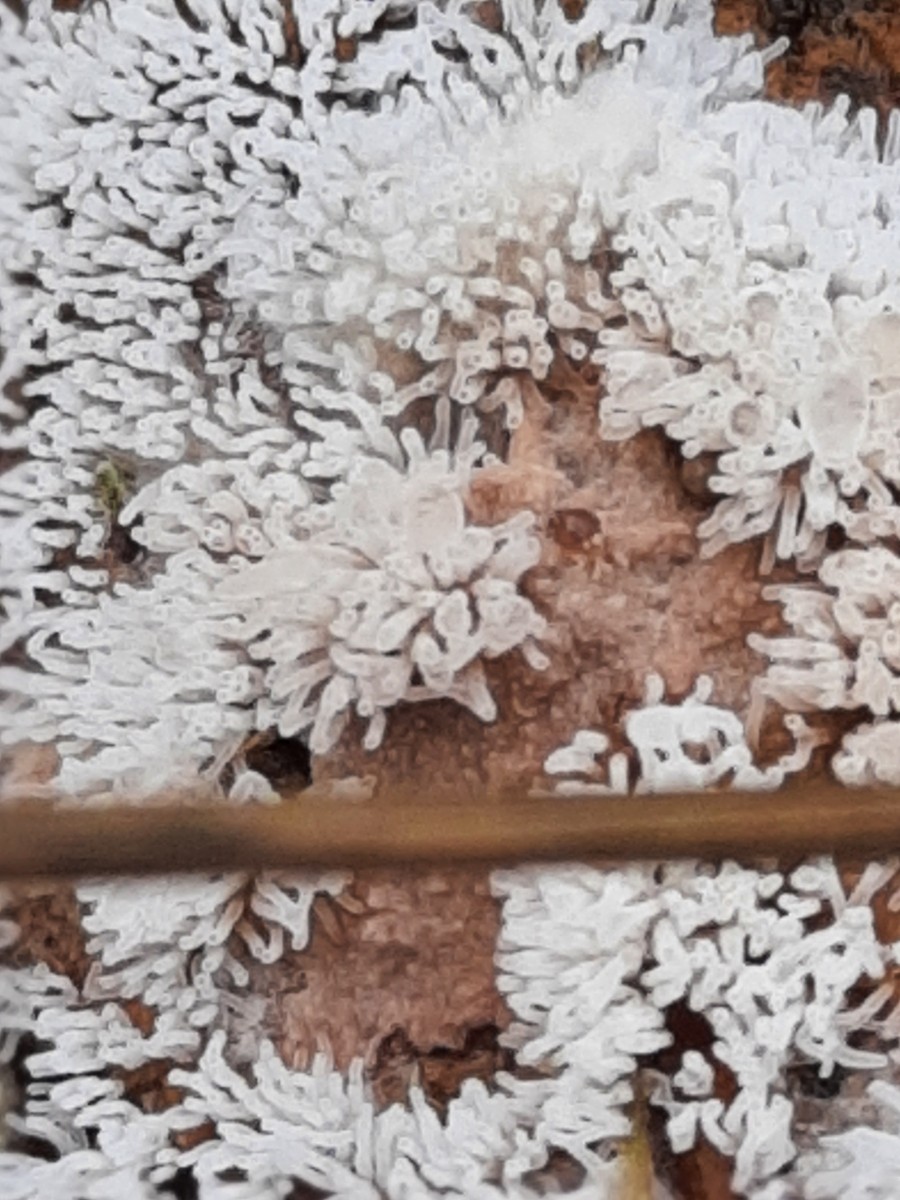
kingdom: Protozoa
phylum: Mycetozoa
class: Protosteliomycetes
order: Ceratiomyxales
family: Ceratiomyxaceae
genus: Ceratiomyxa
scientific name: Ceratiomyxa fruticulosa
